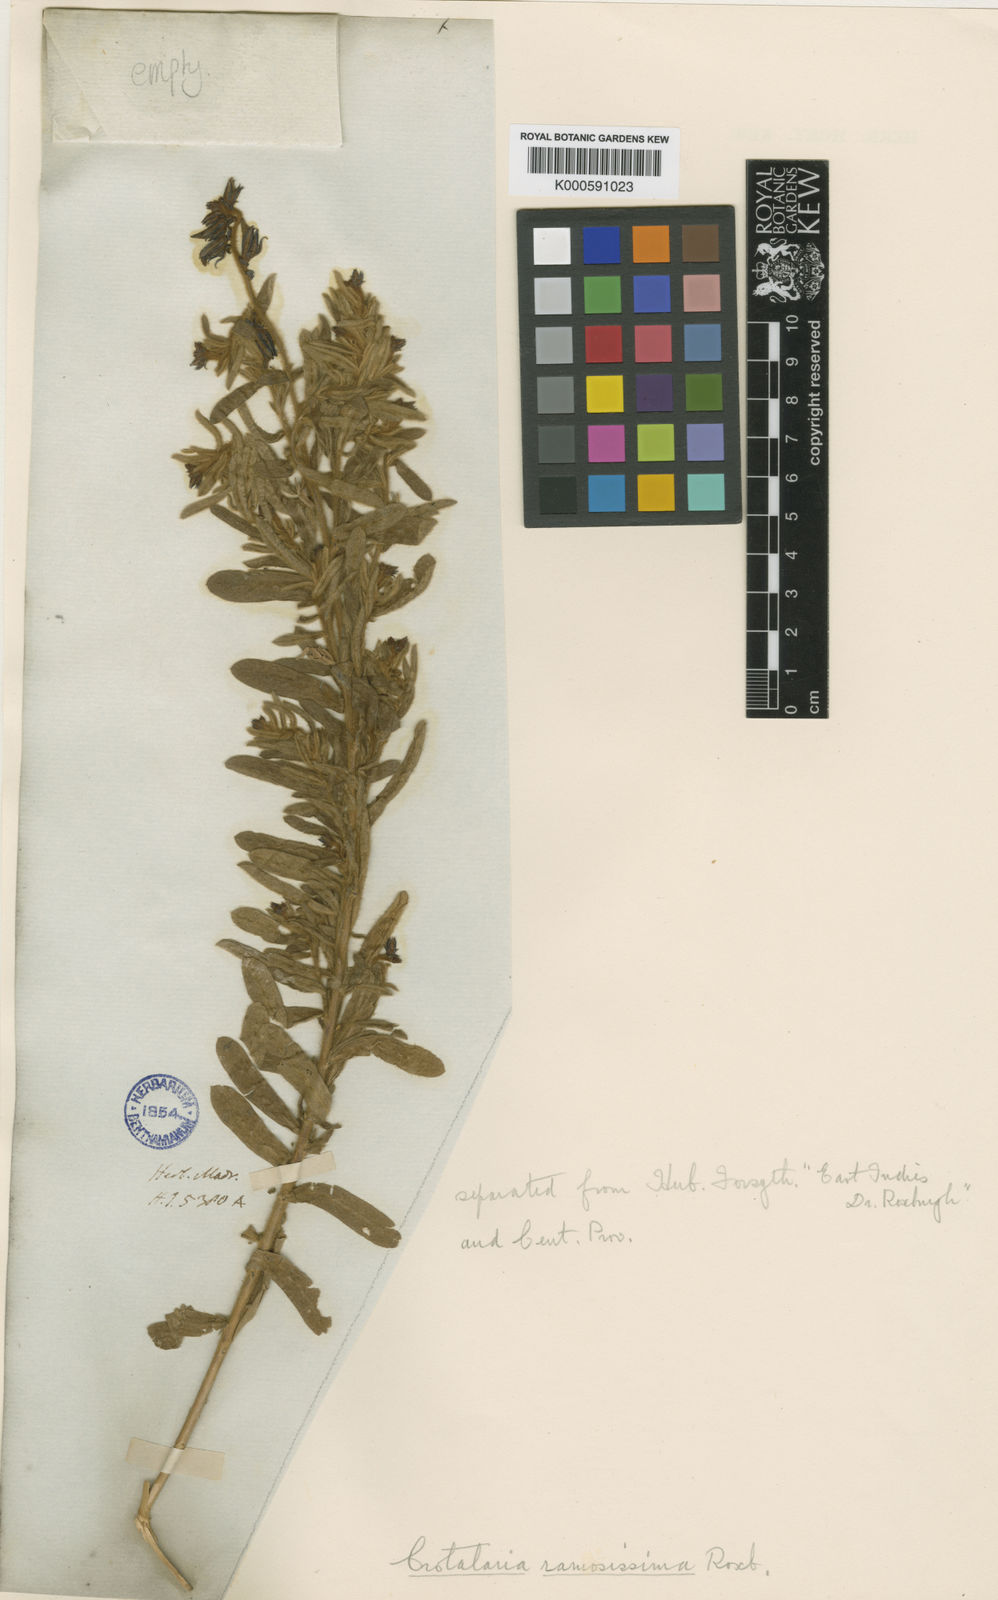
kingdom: Plantae
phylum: Tracheophyta
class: Magnoliopsida
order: Fabales
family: Fabaceae
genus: Crotalaria
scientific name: Crotalaria
